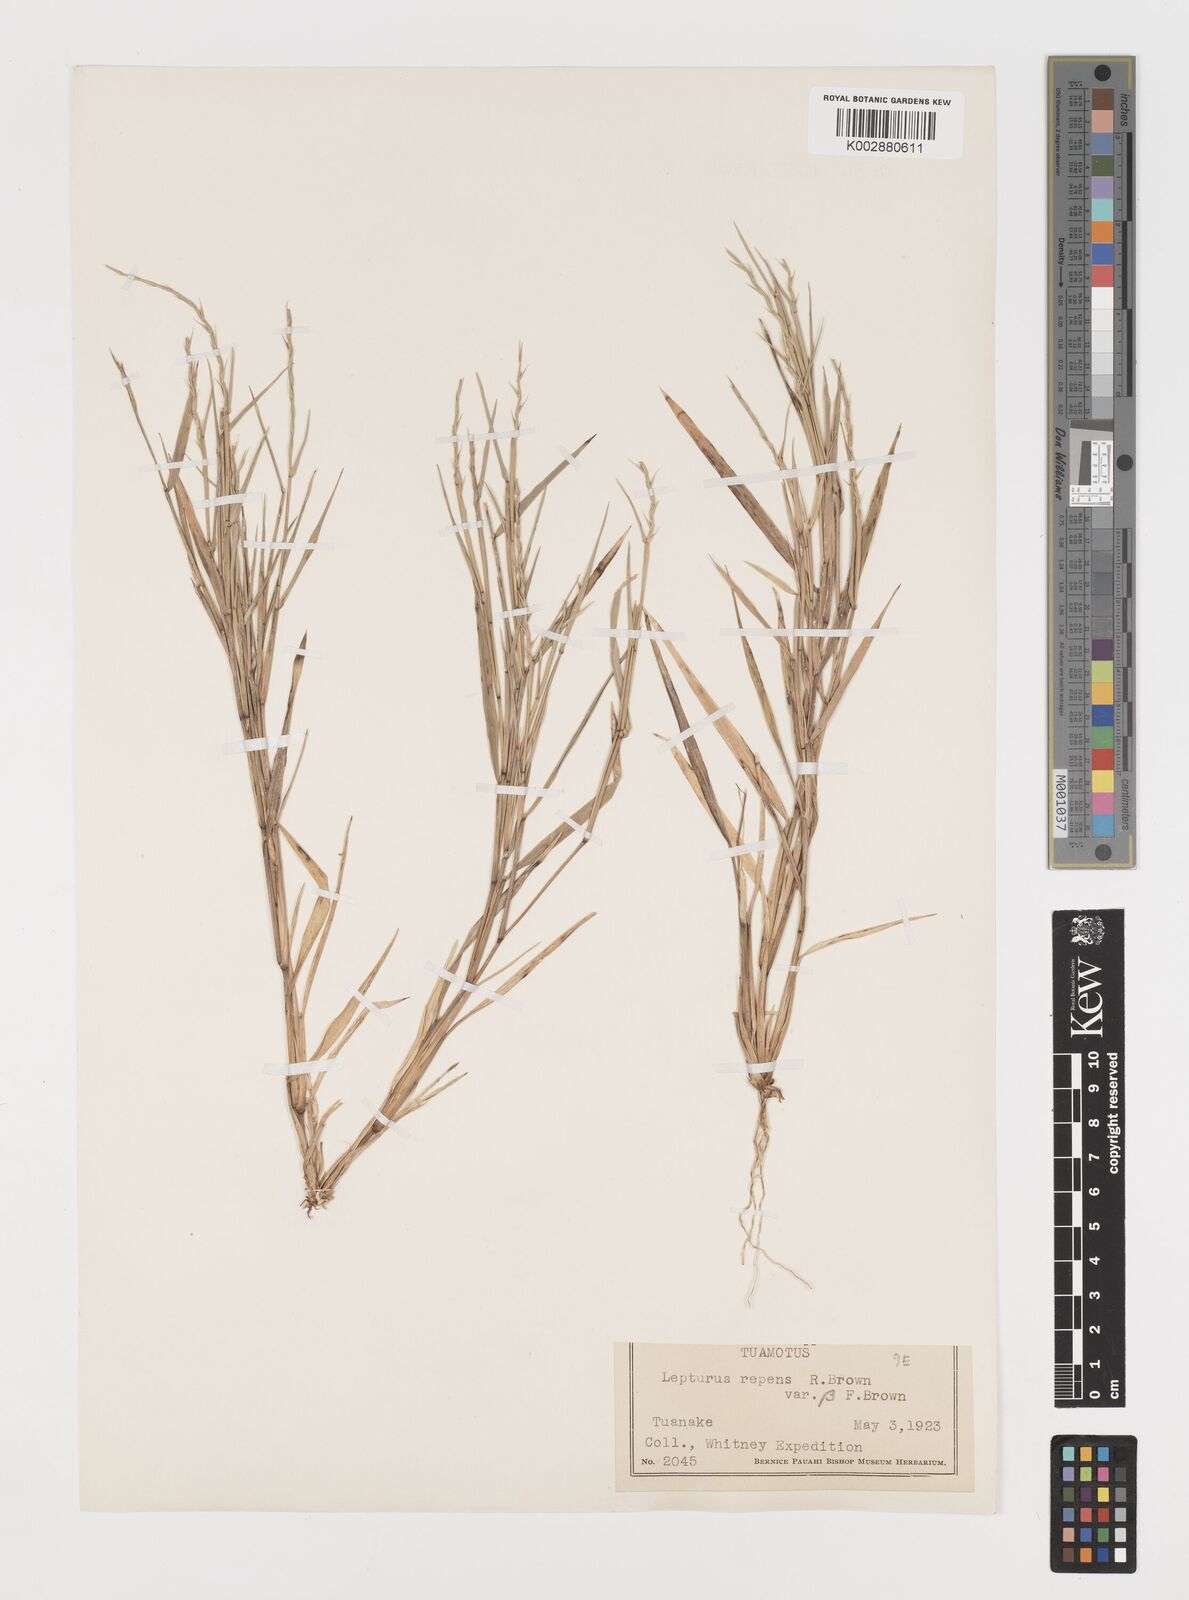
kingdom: Plantae
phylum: Tracheophyta
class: Liliopsida
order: Poales
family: Poaceae
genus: Lepturus
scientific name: Lepturus repens
